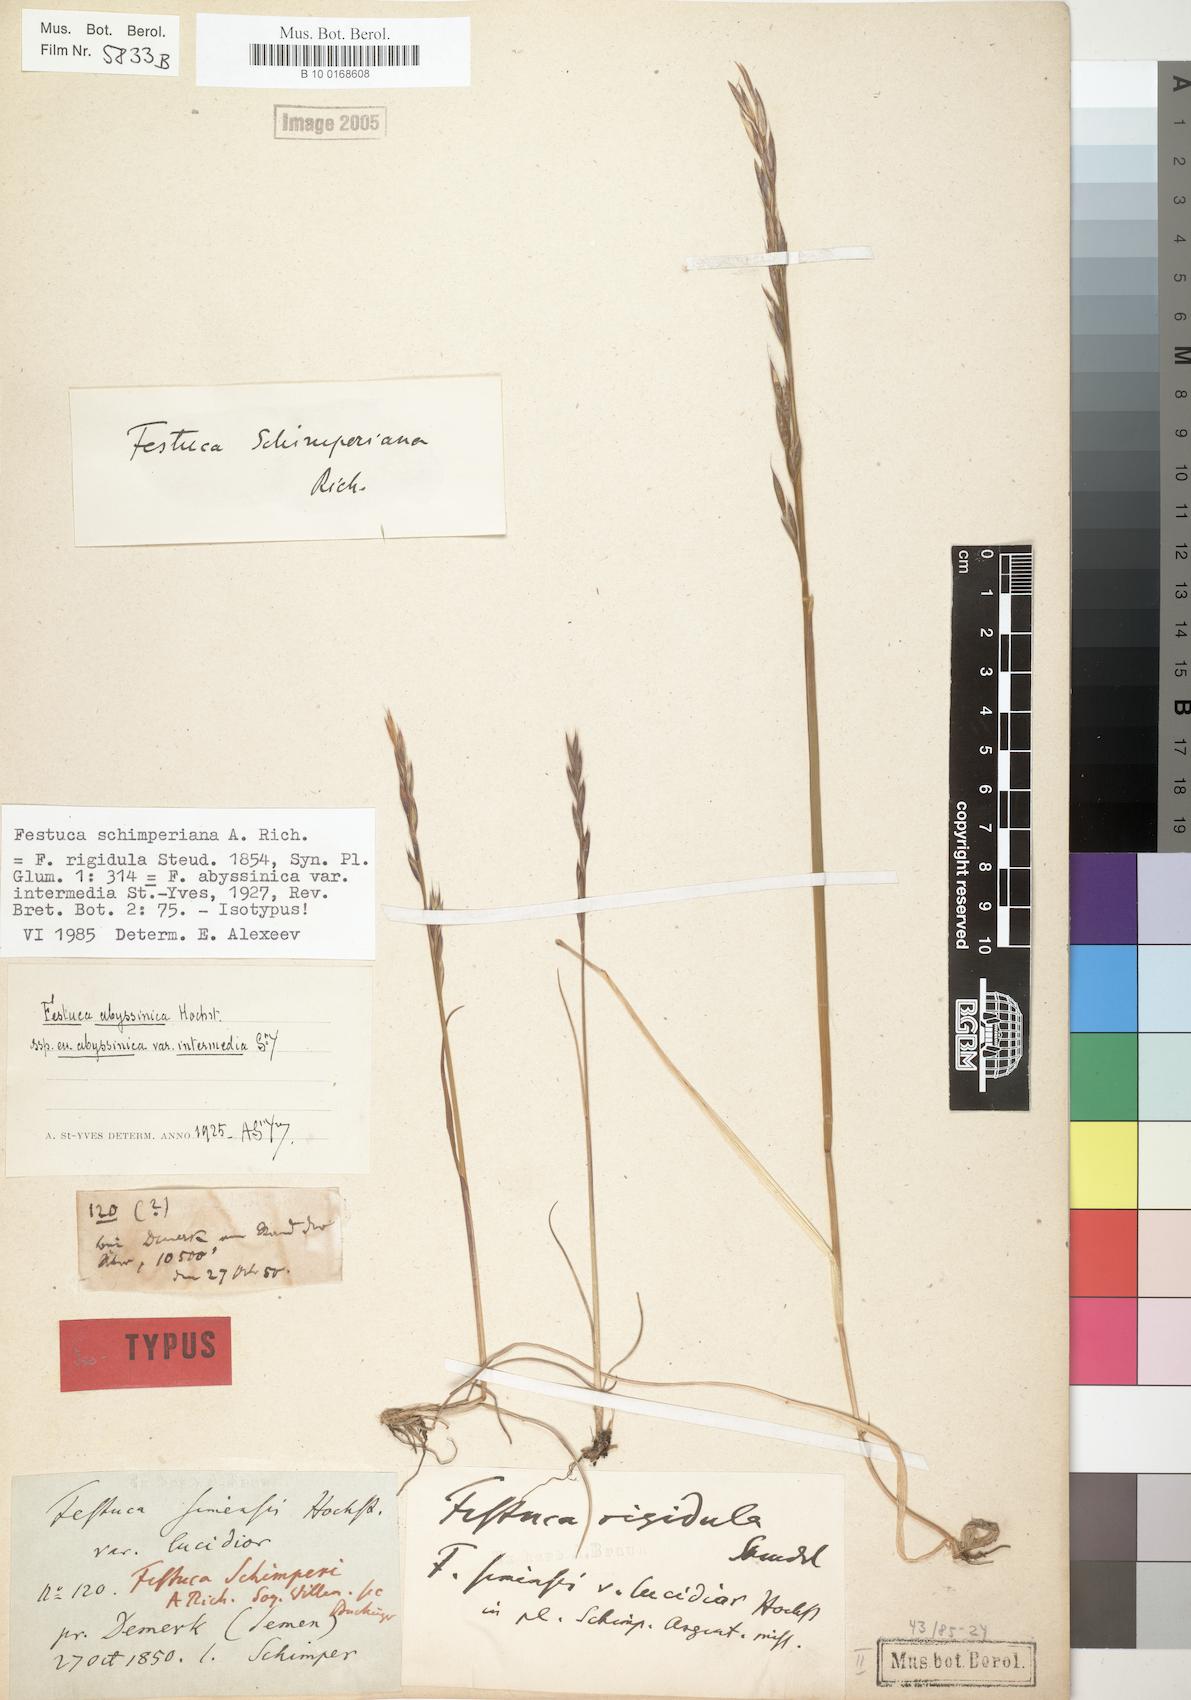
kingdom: Plantae
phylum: Tracheophyta
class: Liliopsida
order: Poales
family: Poaceae
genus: Festuca
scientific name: Festuca abyssinica
